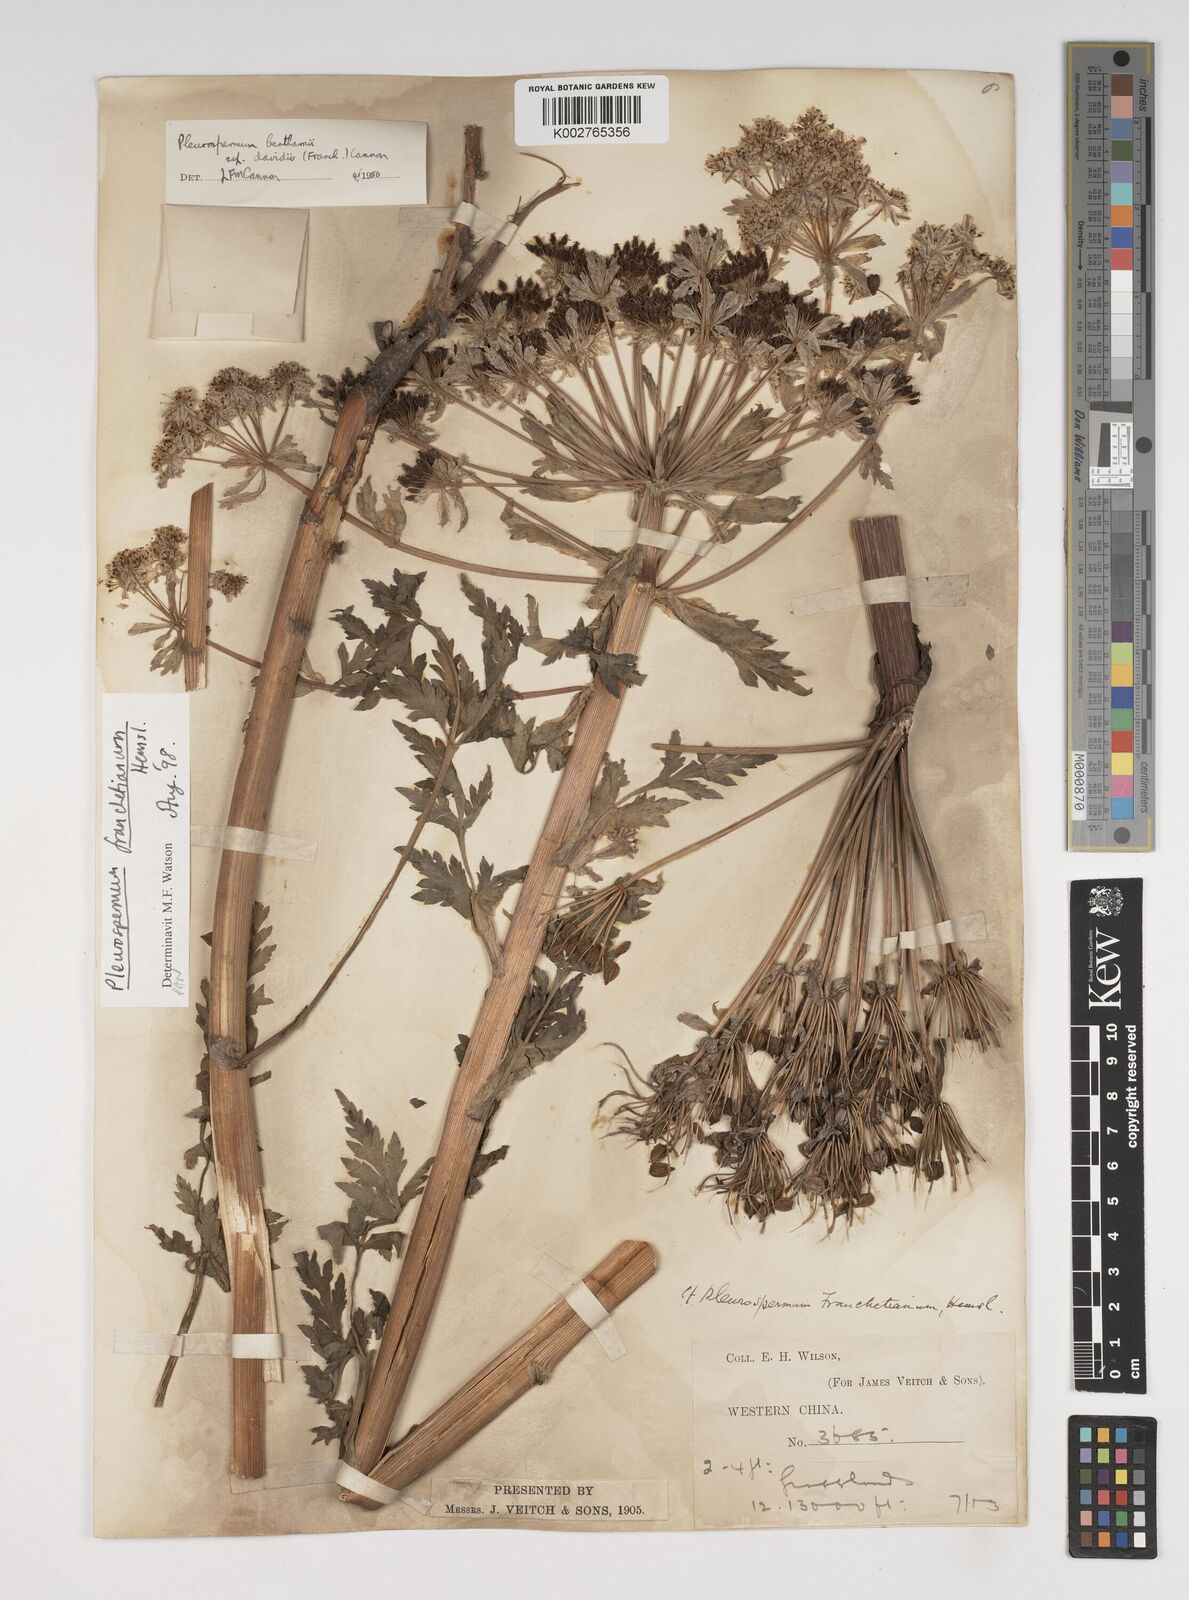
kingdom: Plantae
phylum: Tracheophyta
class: Magnoliopsida
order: Apiales
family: Apiaceae
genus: Hymenidium
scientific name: Hymenidium
